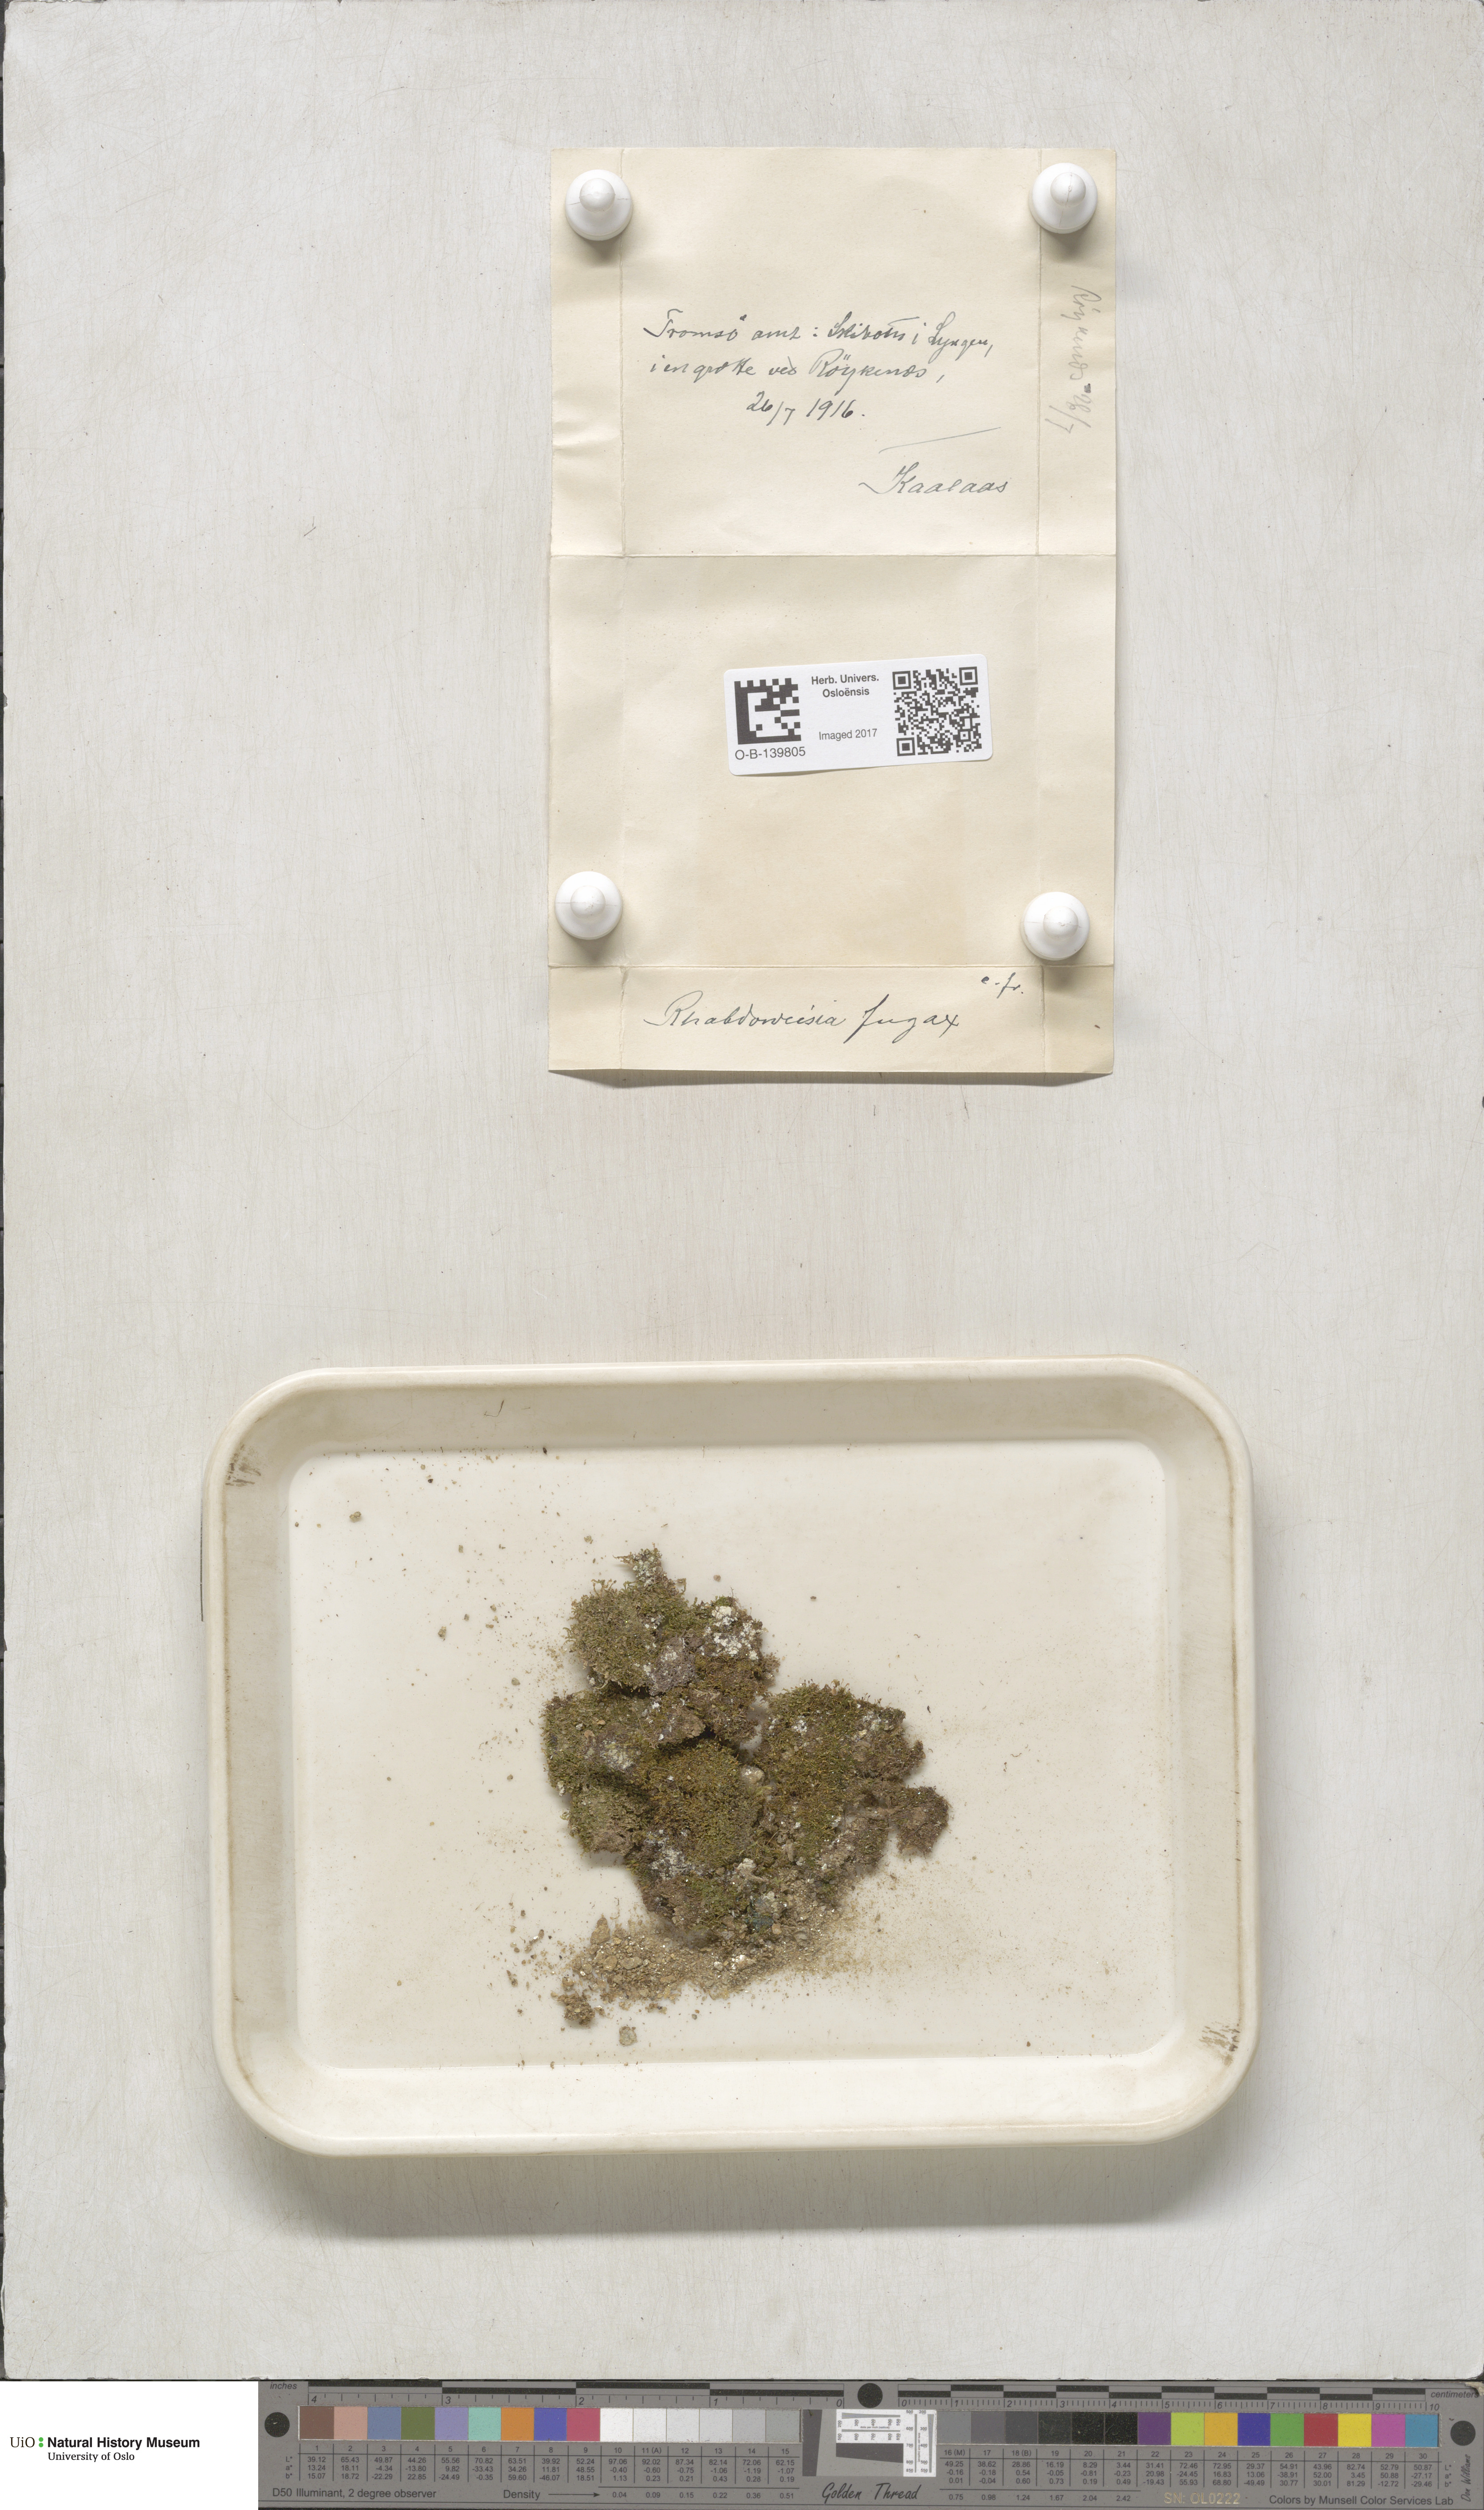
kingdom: Plantae
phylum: Bryophyta
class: Bryopsida
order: Dicranales
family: Rhabdoweisiaceae
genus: Rhabdoweisia
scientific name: Rhabdoweisia fugax
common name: Dwarf streak-moss
